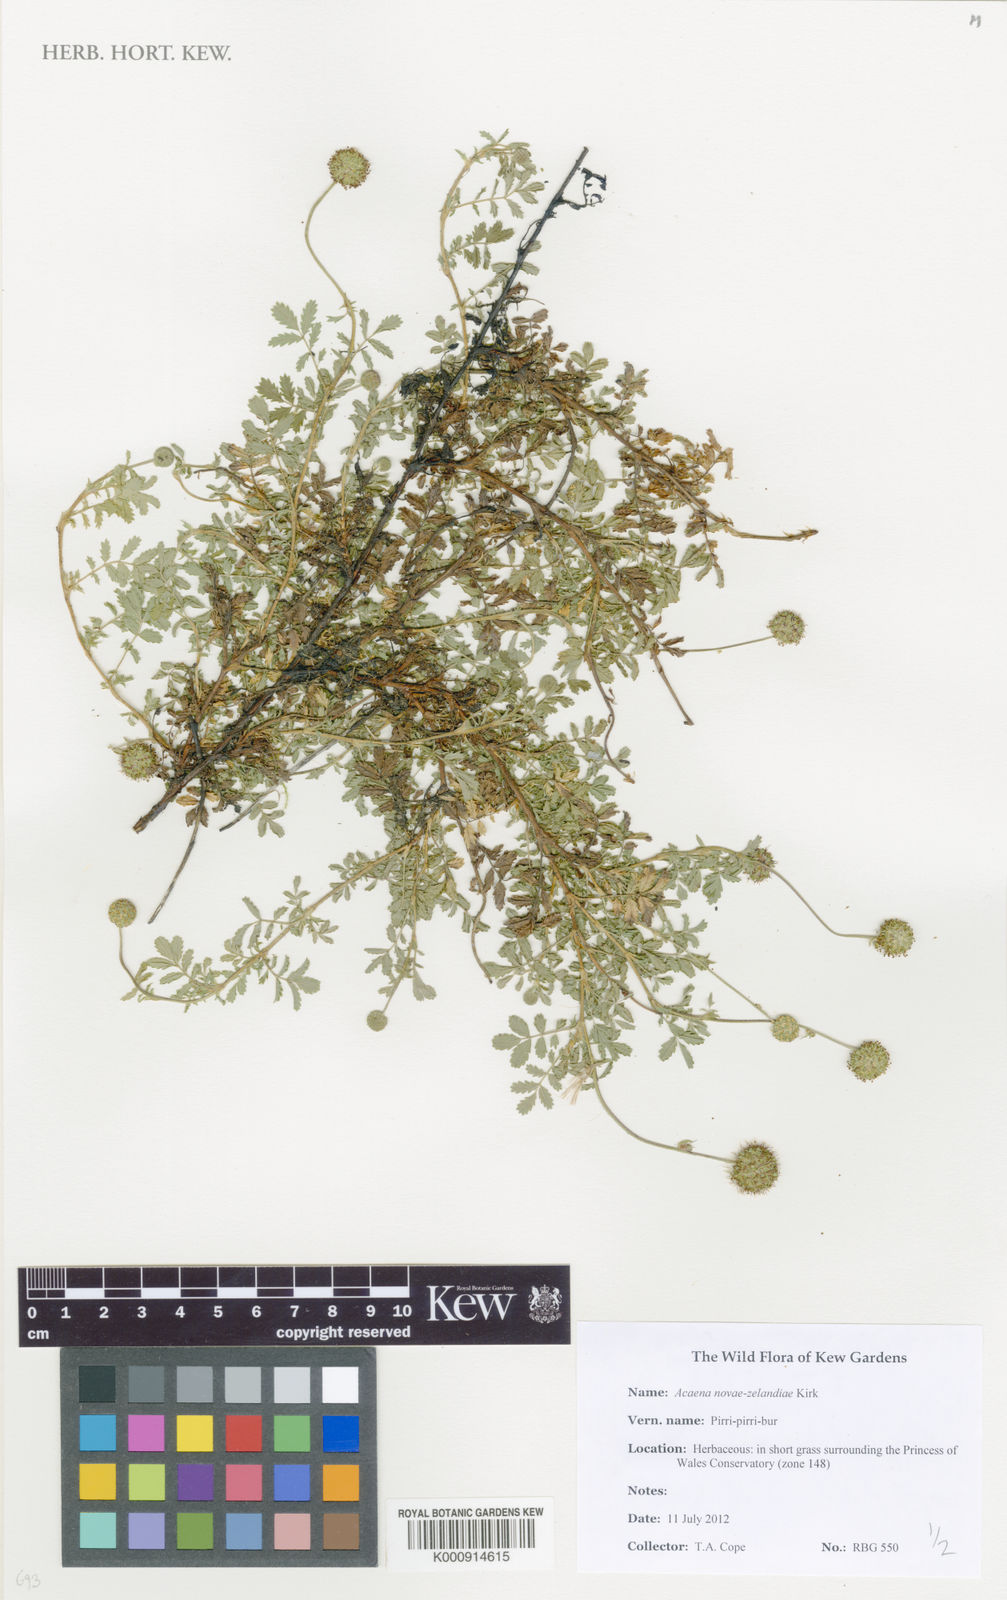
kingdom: Plantae
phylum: Tracheophyta
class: Magnoliopsida
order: Rosales
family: Rosaceae
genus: Acaena
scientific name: Acaena novae-zelandiae
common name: Pirri-pirri-bur
